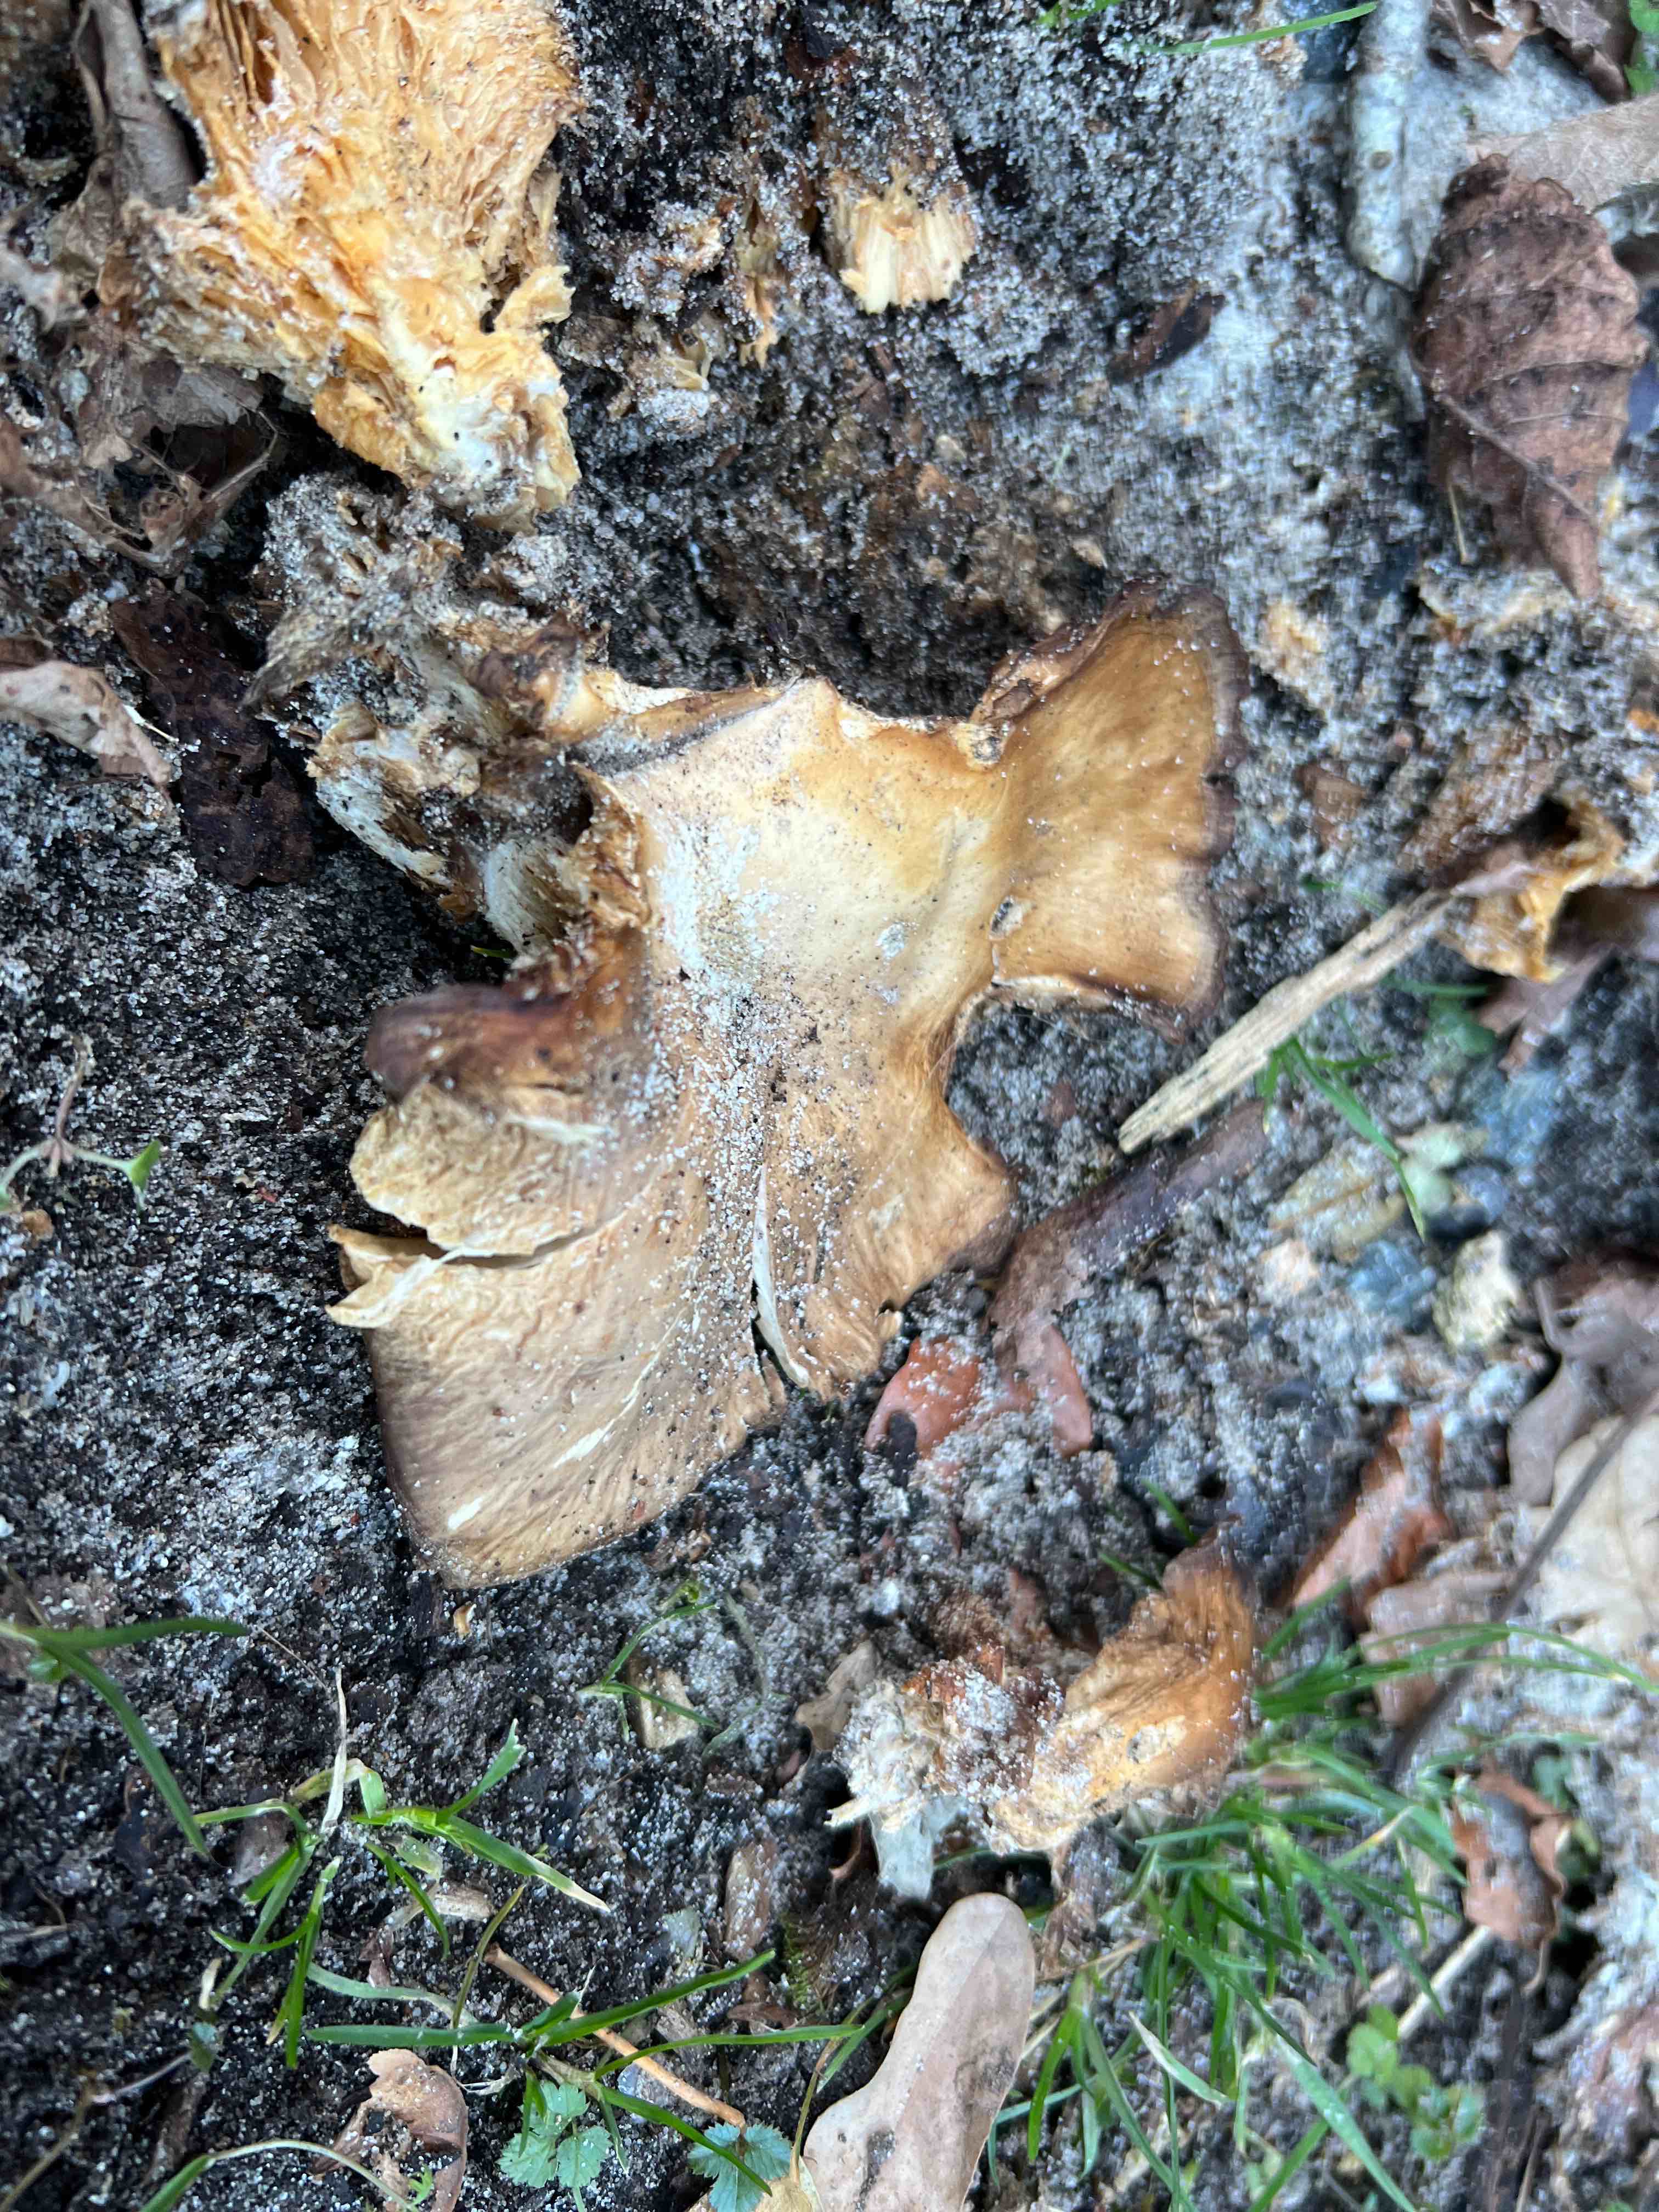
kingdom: Fungi
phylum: Basidiomycota
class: Agaricomycetes
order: Agaricales
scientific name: Agaricales
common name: champignonordenen
